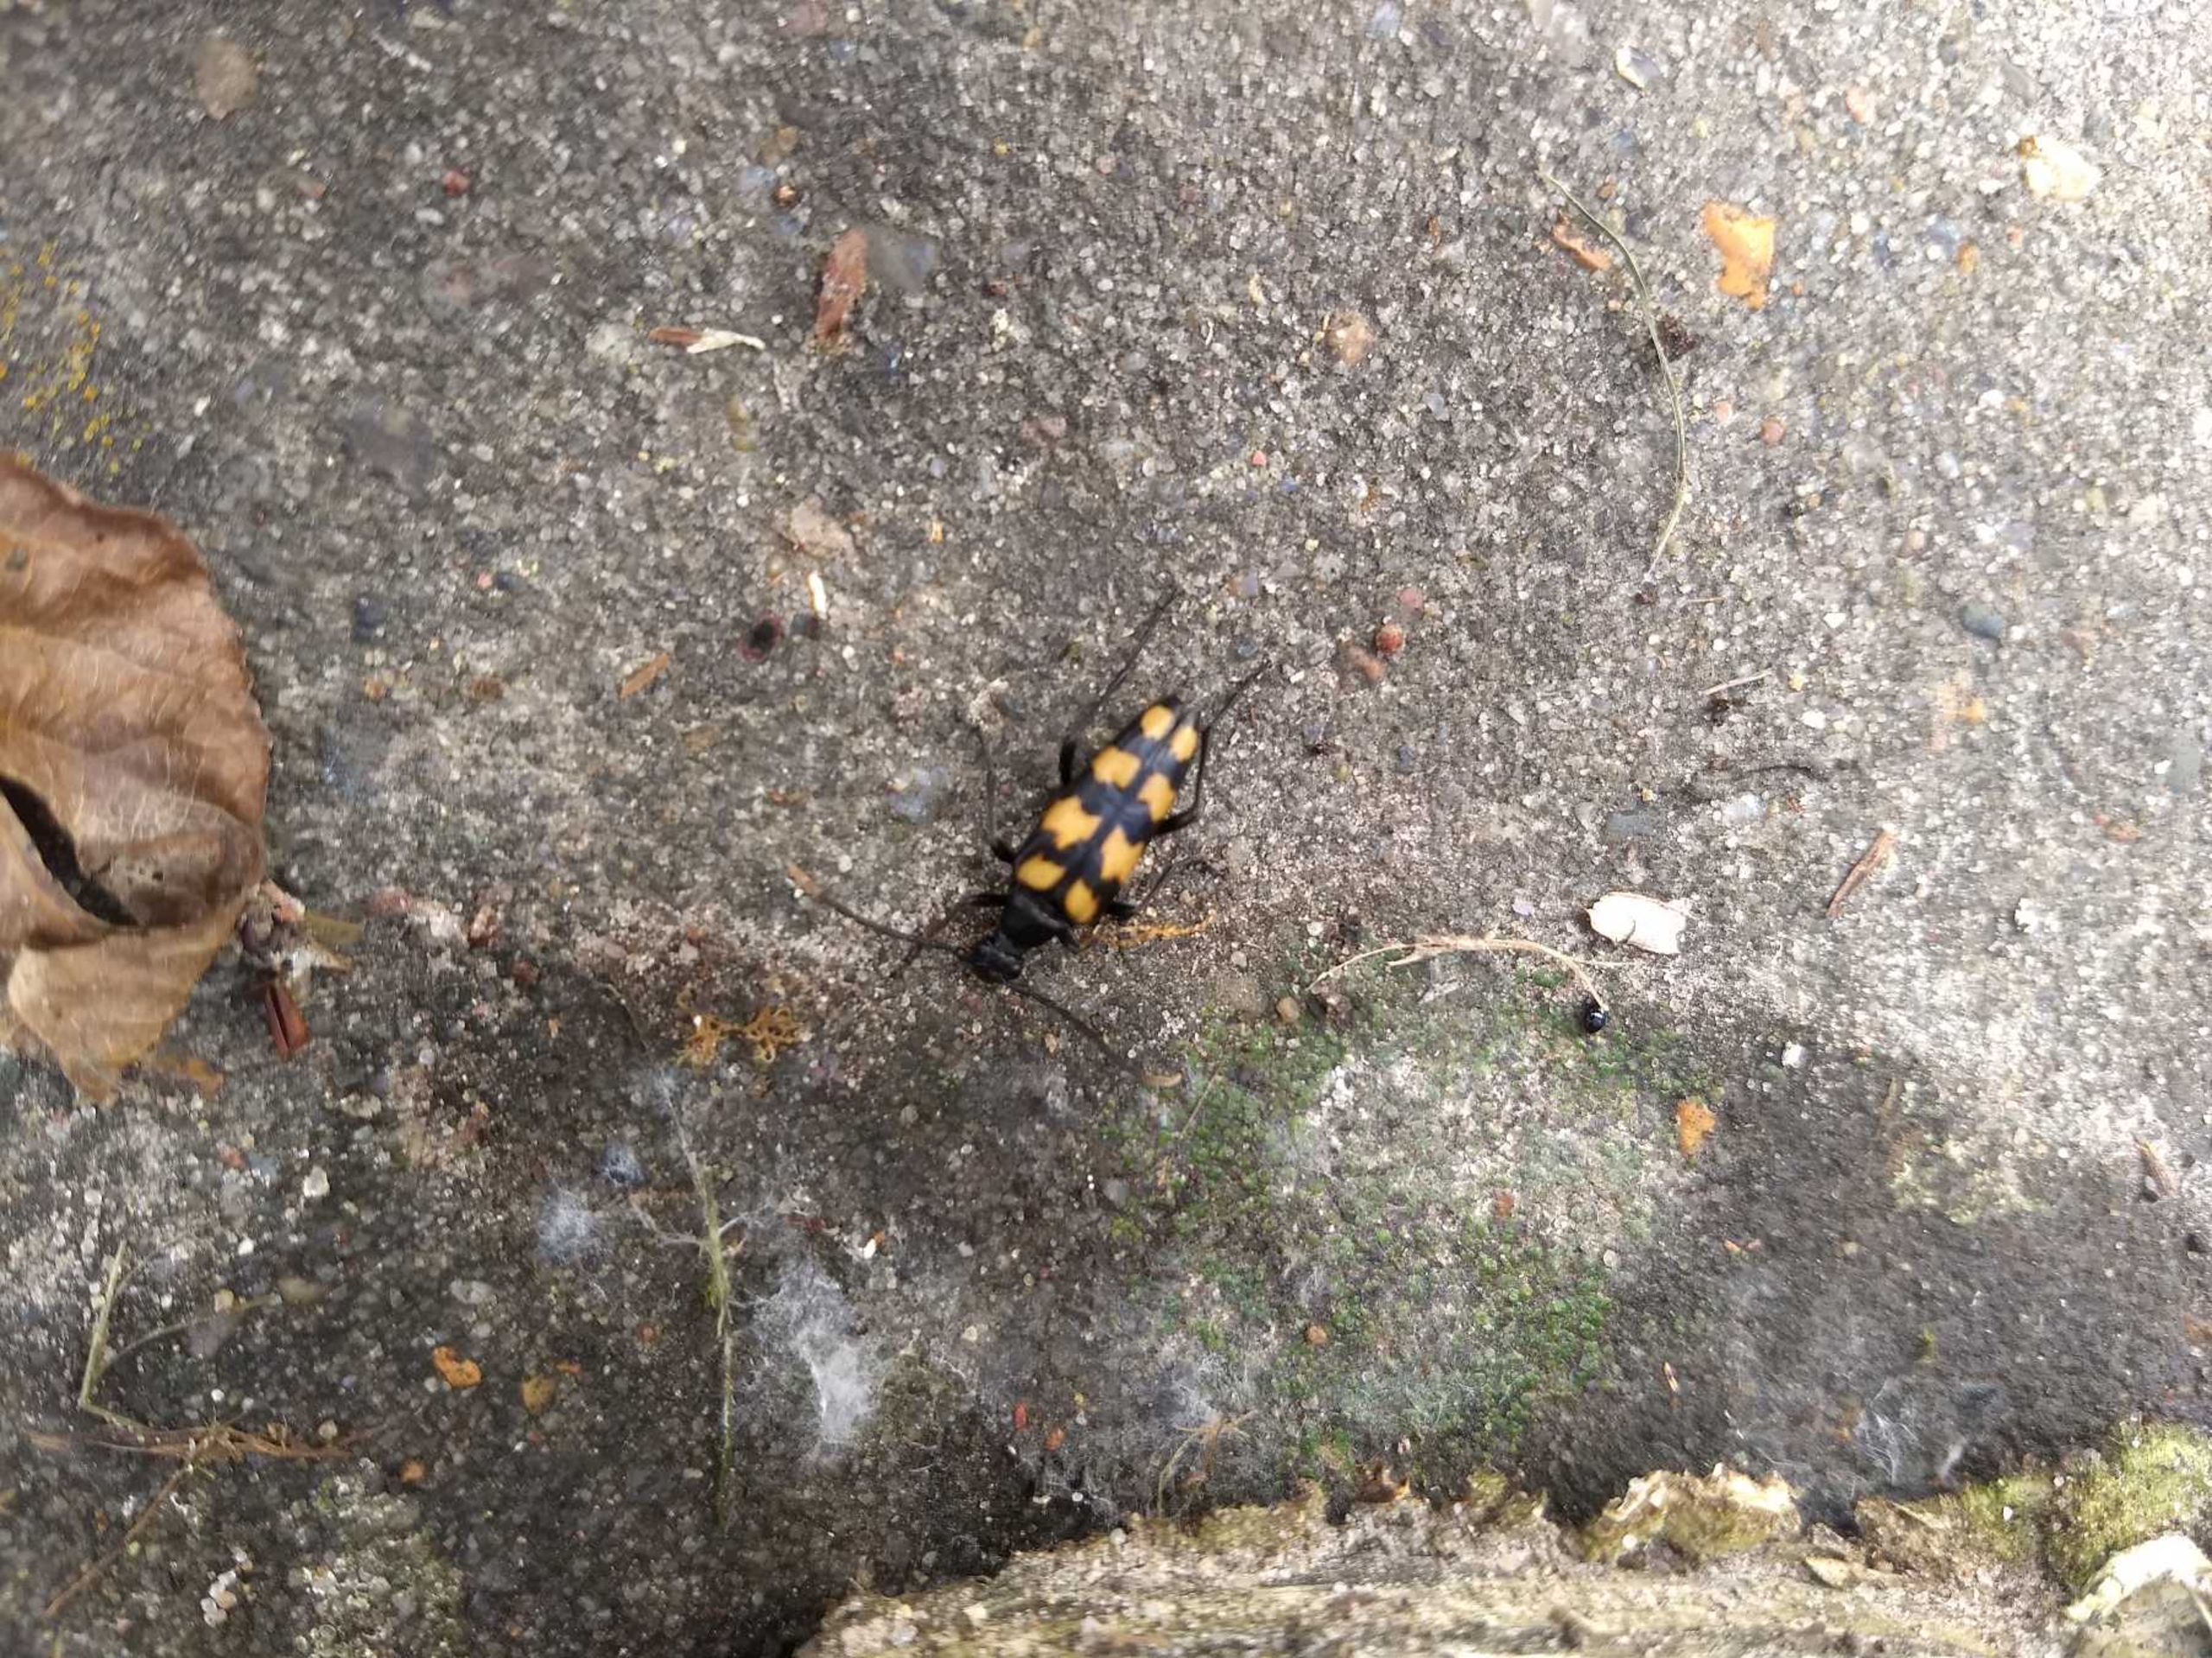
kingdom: Animalia
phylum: Arthropoda
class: Insecta
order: Coleoptera
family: Cerambycidae
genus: Leptura
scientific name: Leptura quadrifasciata
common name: Firebåndet blomsterbuk
